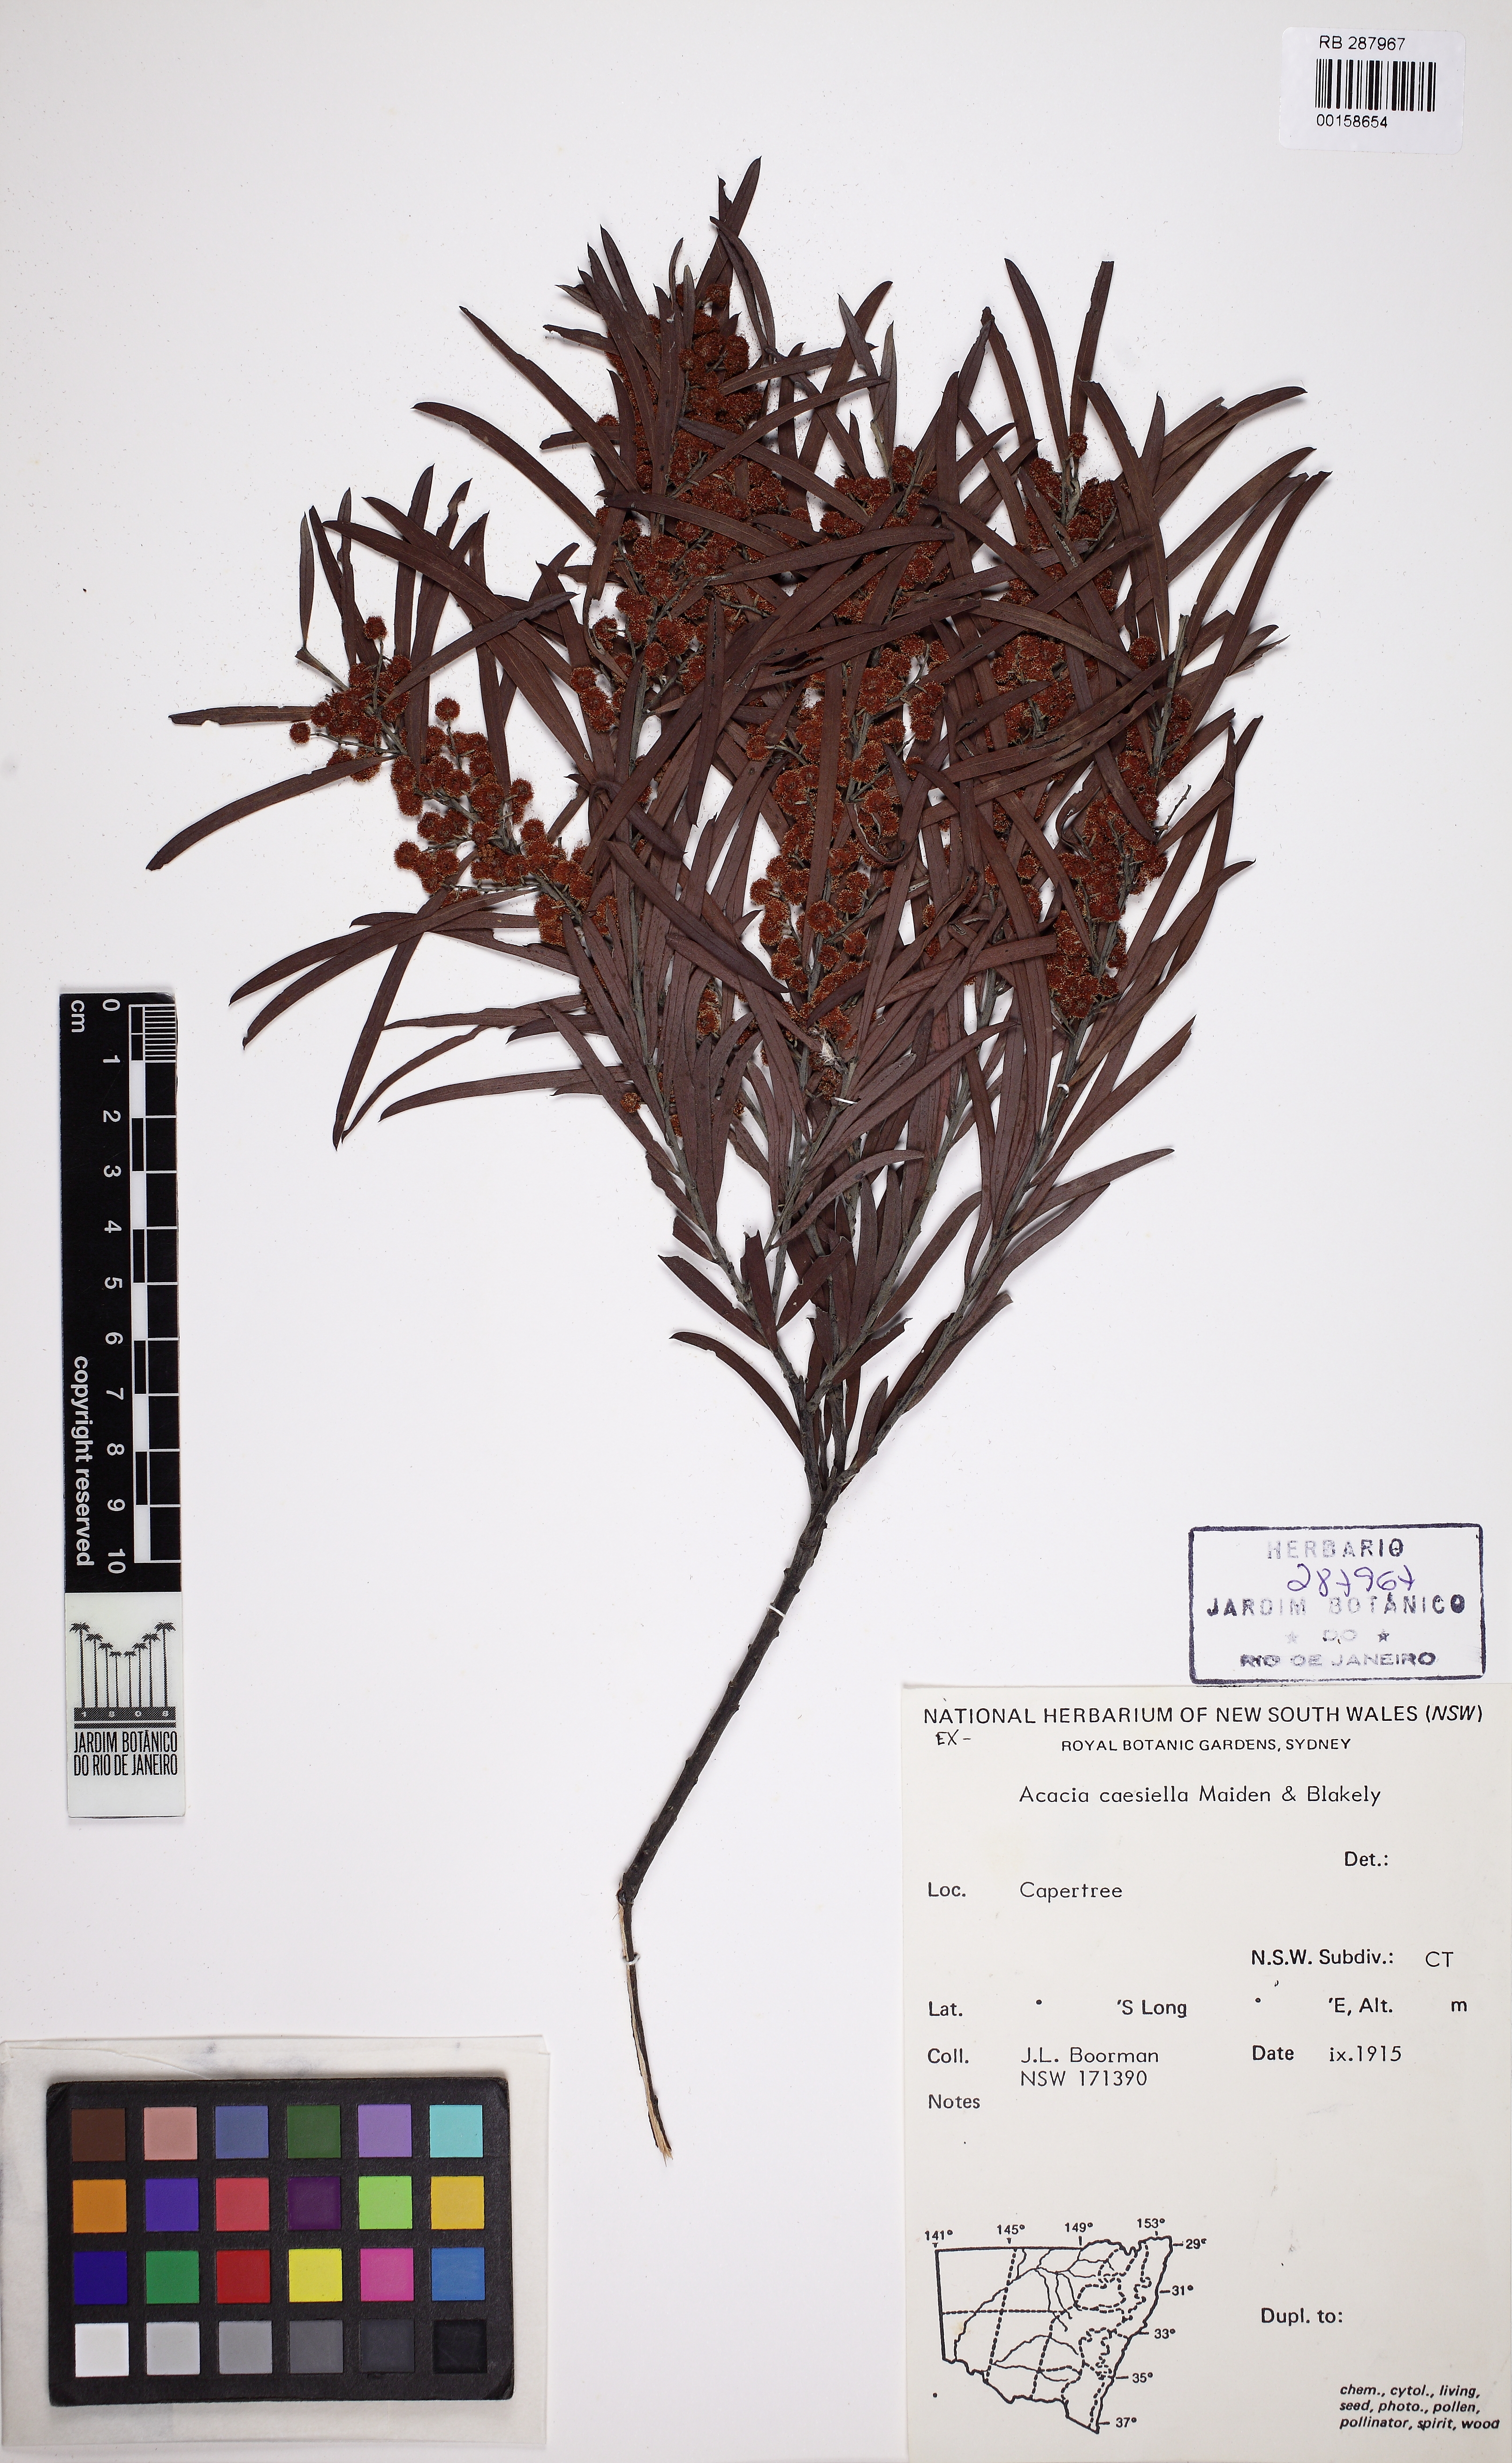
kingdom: Plantae
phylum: Tracheophyta
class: Magnoliopsida
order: Fabales
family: Fabaceae
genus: Acacia
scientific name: Acacia caesiella
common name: Tableland wattle
